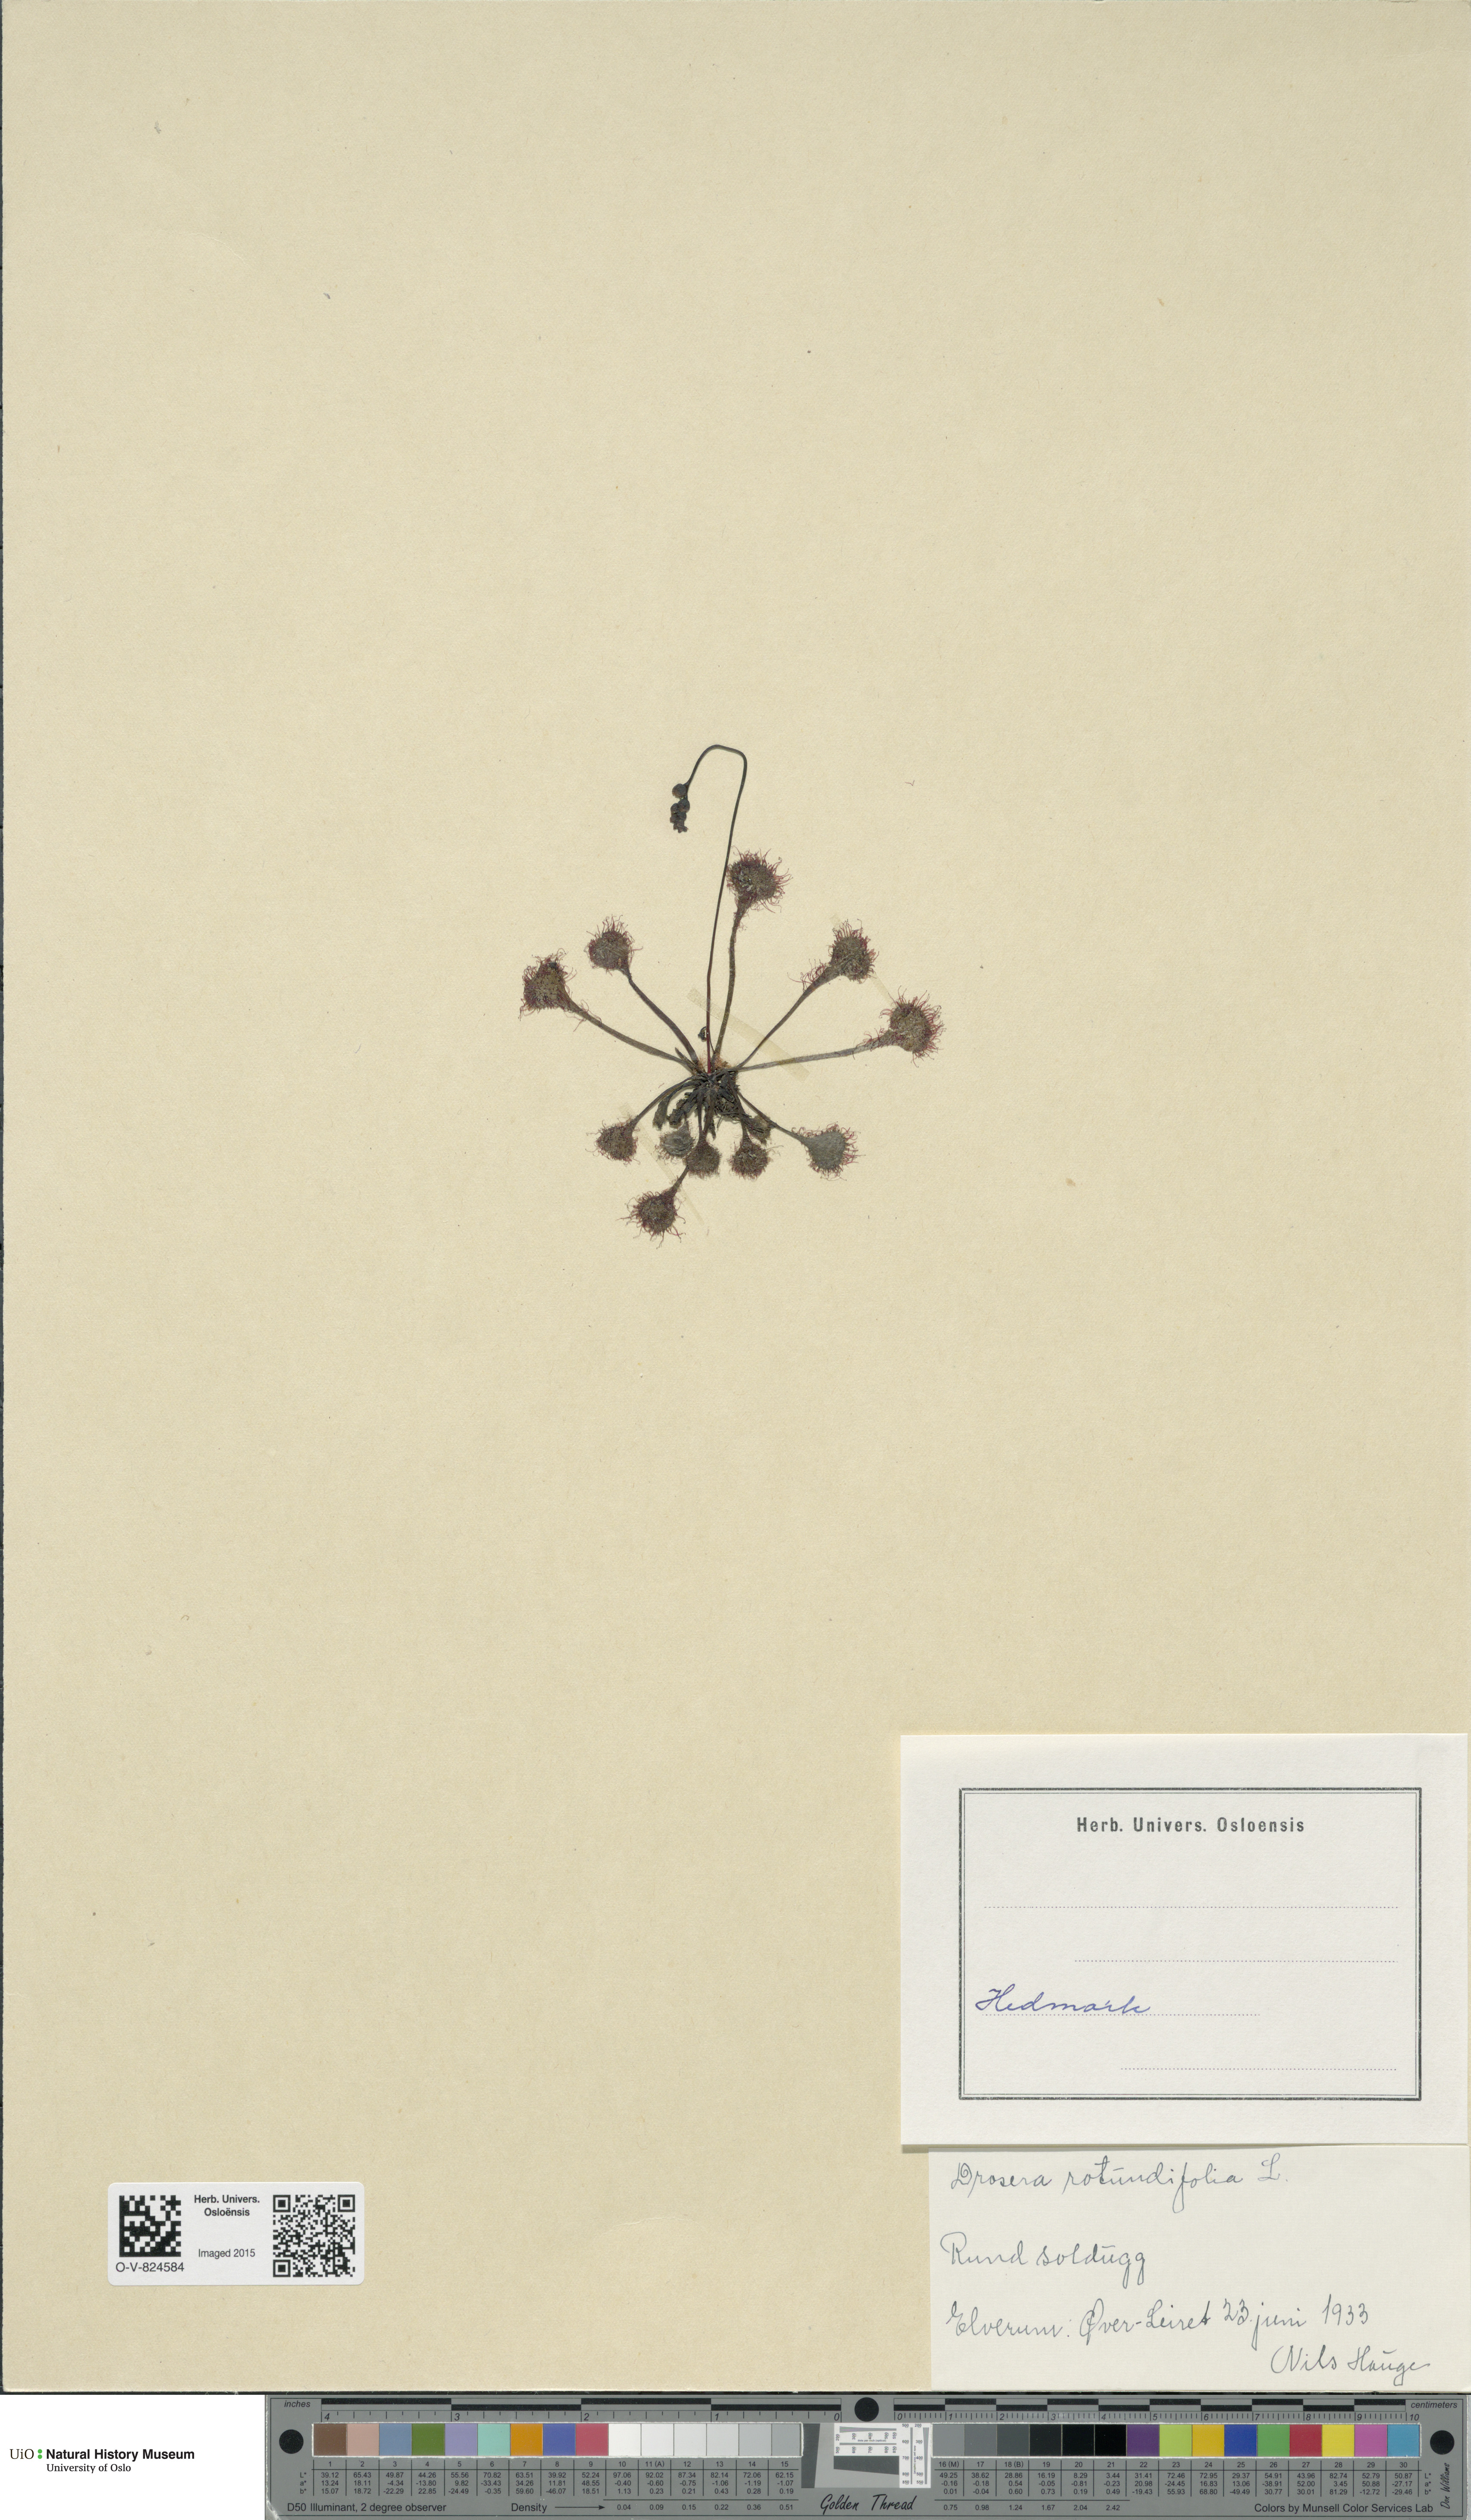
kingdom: Plantae
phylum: Tracheophyta
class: Magnoliopsida
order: Caryophyllales
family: Droseraceae
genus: Drosera
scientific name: Drosera rotundifolia
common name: Round-leaved sundew
